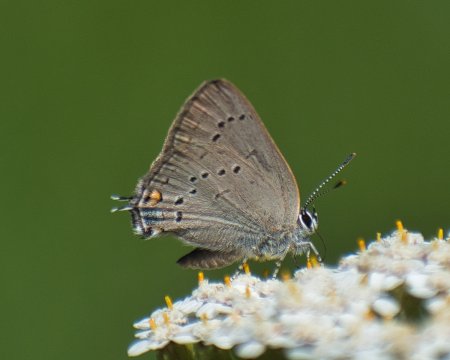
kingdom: Animalia
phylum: Arthropoda
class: Insecta
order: Lepidoptera
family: Lycaenidae
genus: Strymon
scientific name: Strymon sylvinus
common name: Sylvan Hairstreak
